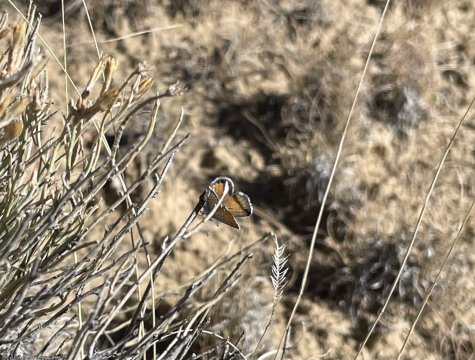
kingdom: Animalia
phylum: Arthropoda
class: Insecta
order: Lepidoptera
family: Lycaenidae
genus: Brephidium
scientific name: Brephidium exilis
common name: Western Pygmy-Blue
